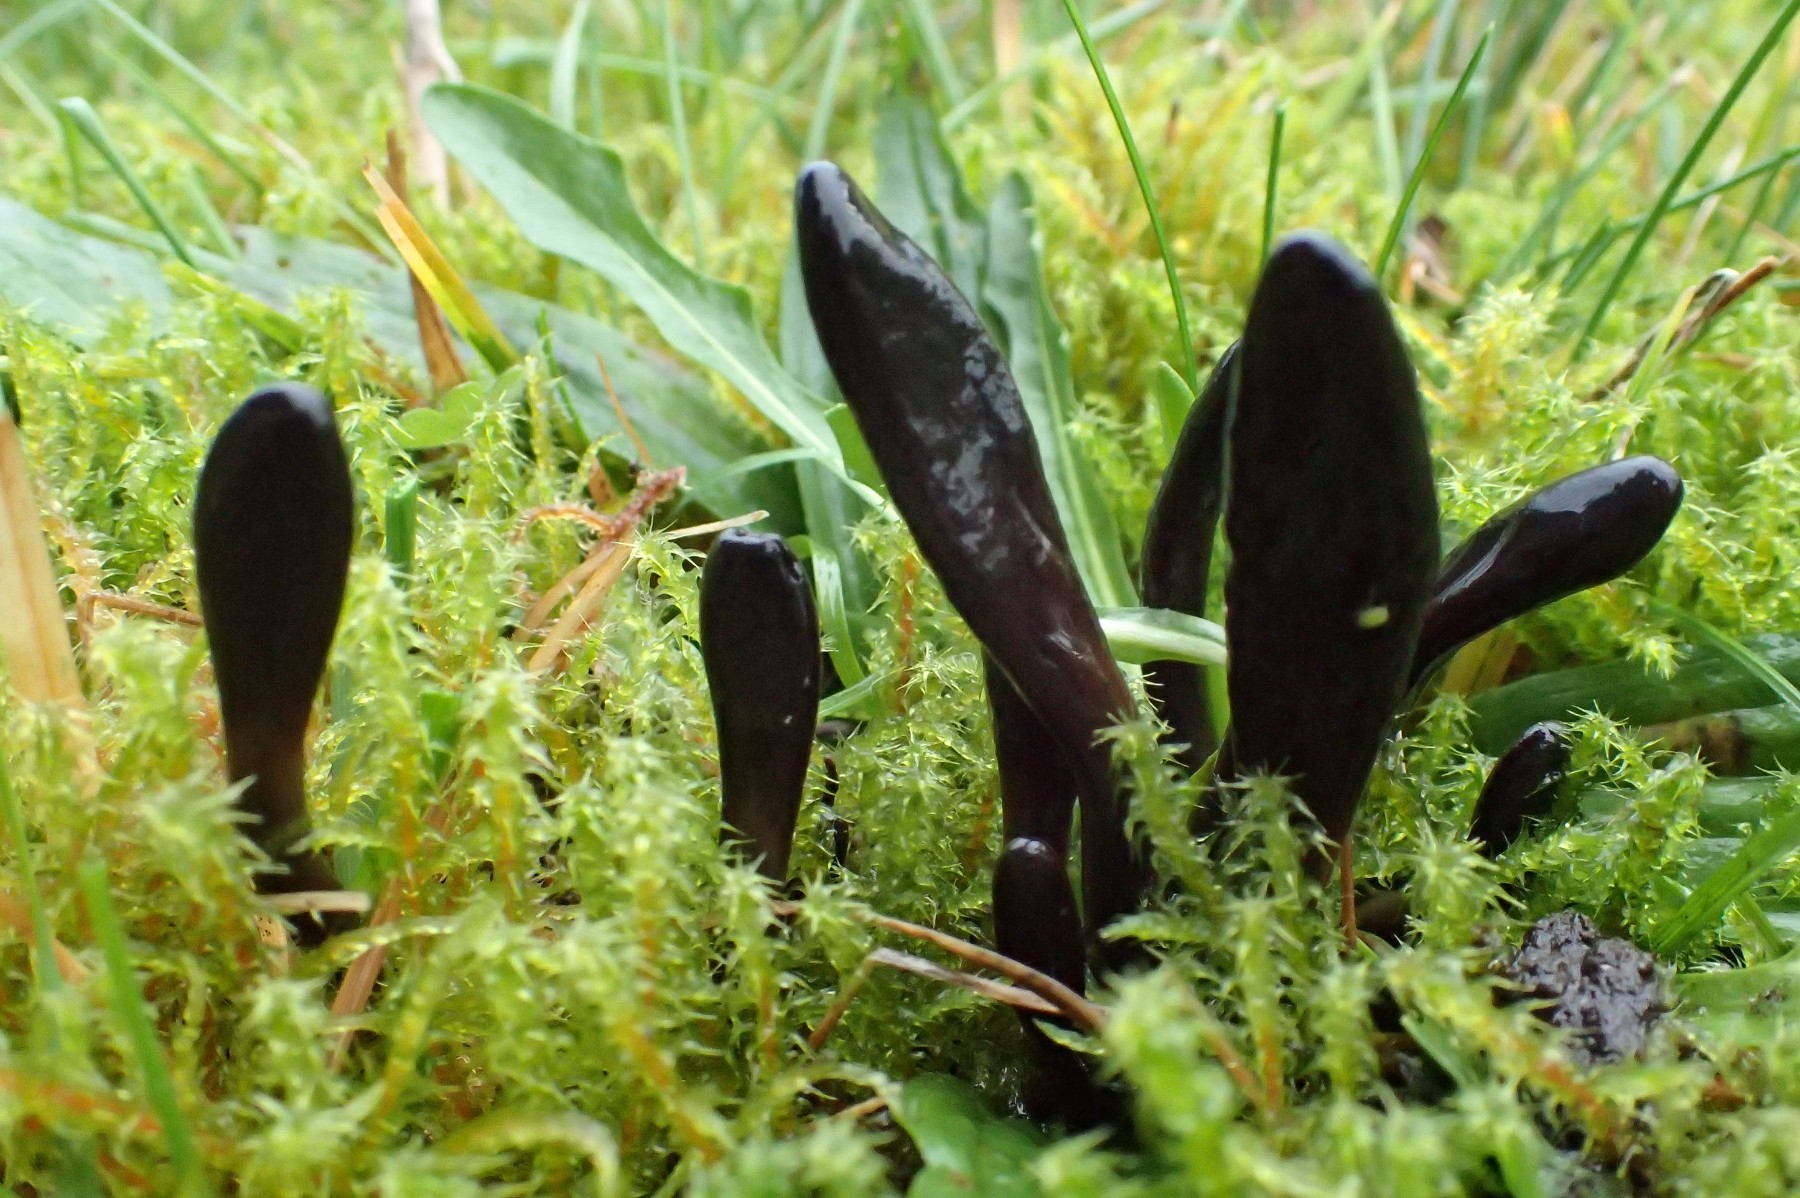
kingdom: Fungi
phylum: Ascomycota
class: Geoglossomycetes
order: Geoglossales
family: Geoglossaceae
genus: Glutinoglossum
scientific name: Glutinoglossum glutinosum
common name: slimet jordtunge
